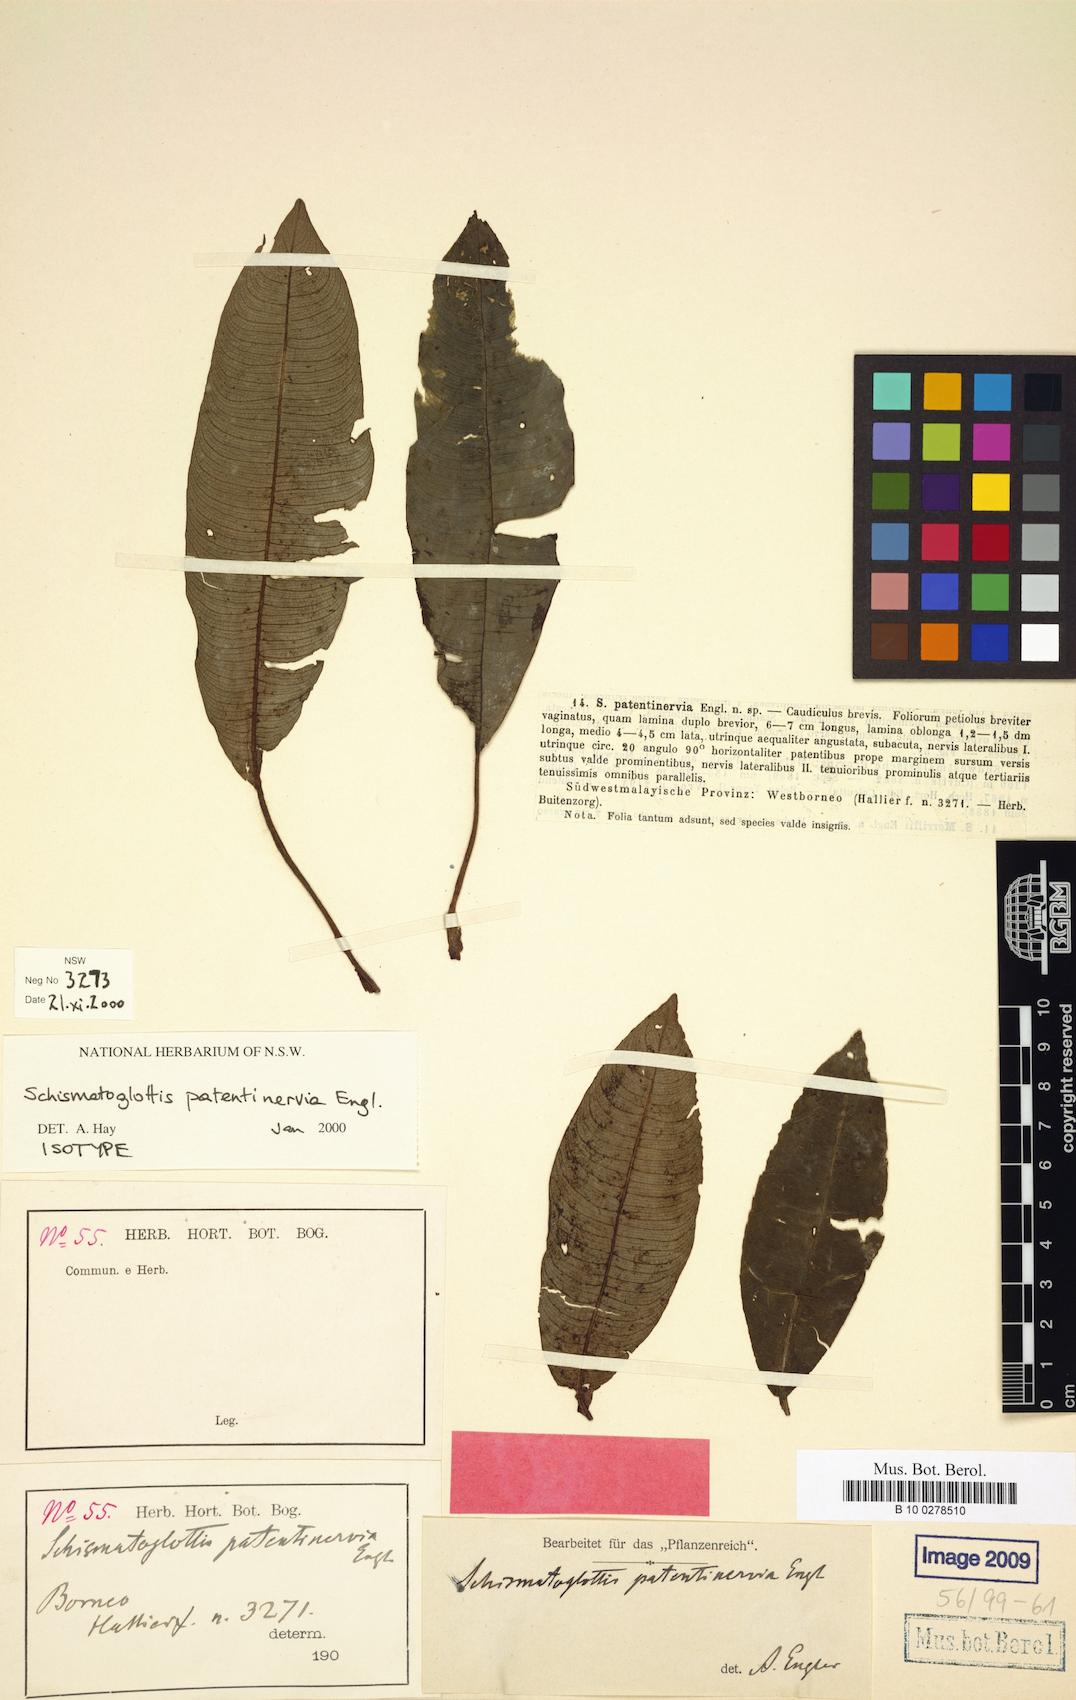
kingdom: Plantae
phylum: Tracheophyta
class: Liliopsida
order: Alismatales
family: Araceae
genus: Schismatoglottis
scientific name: Schismatoglottis patentinervia
